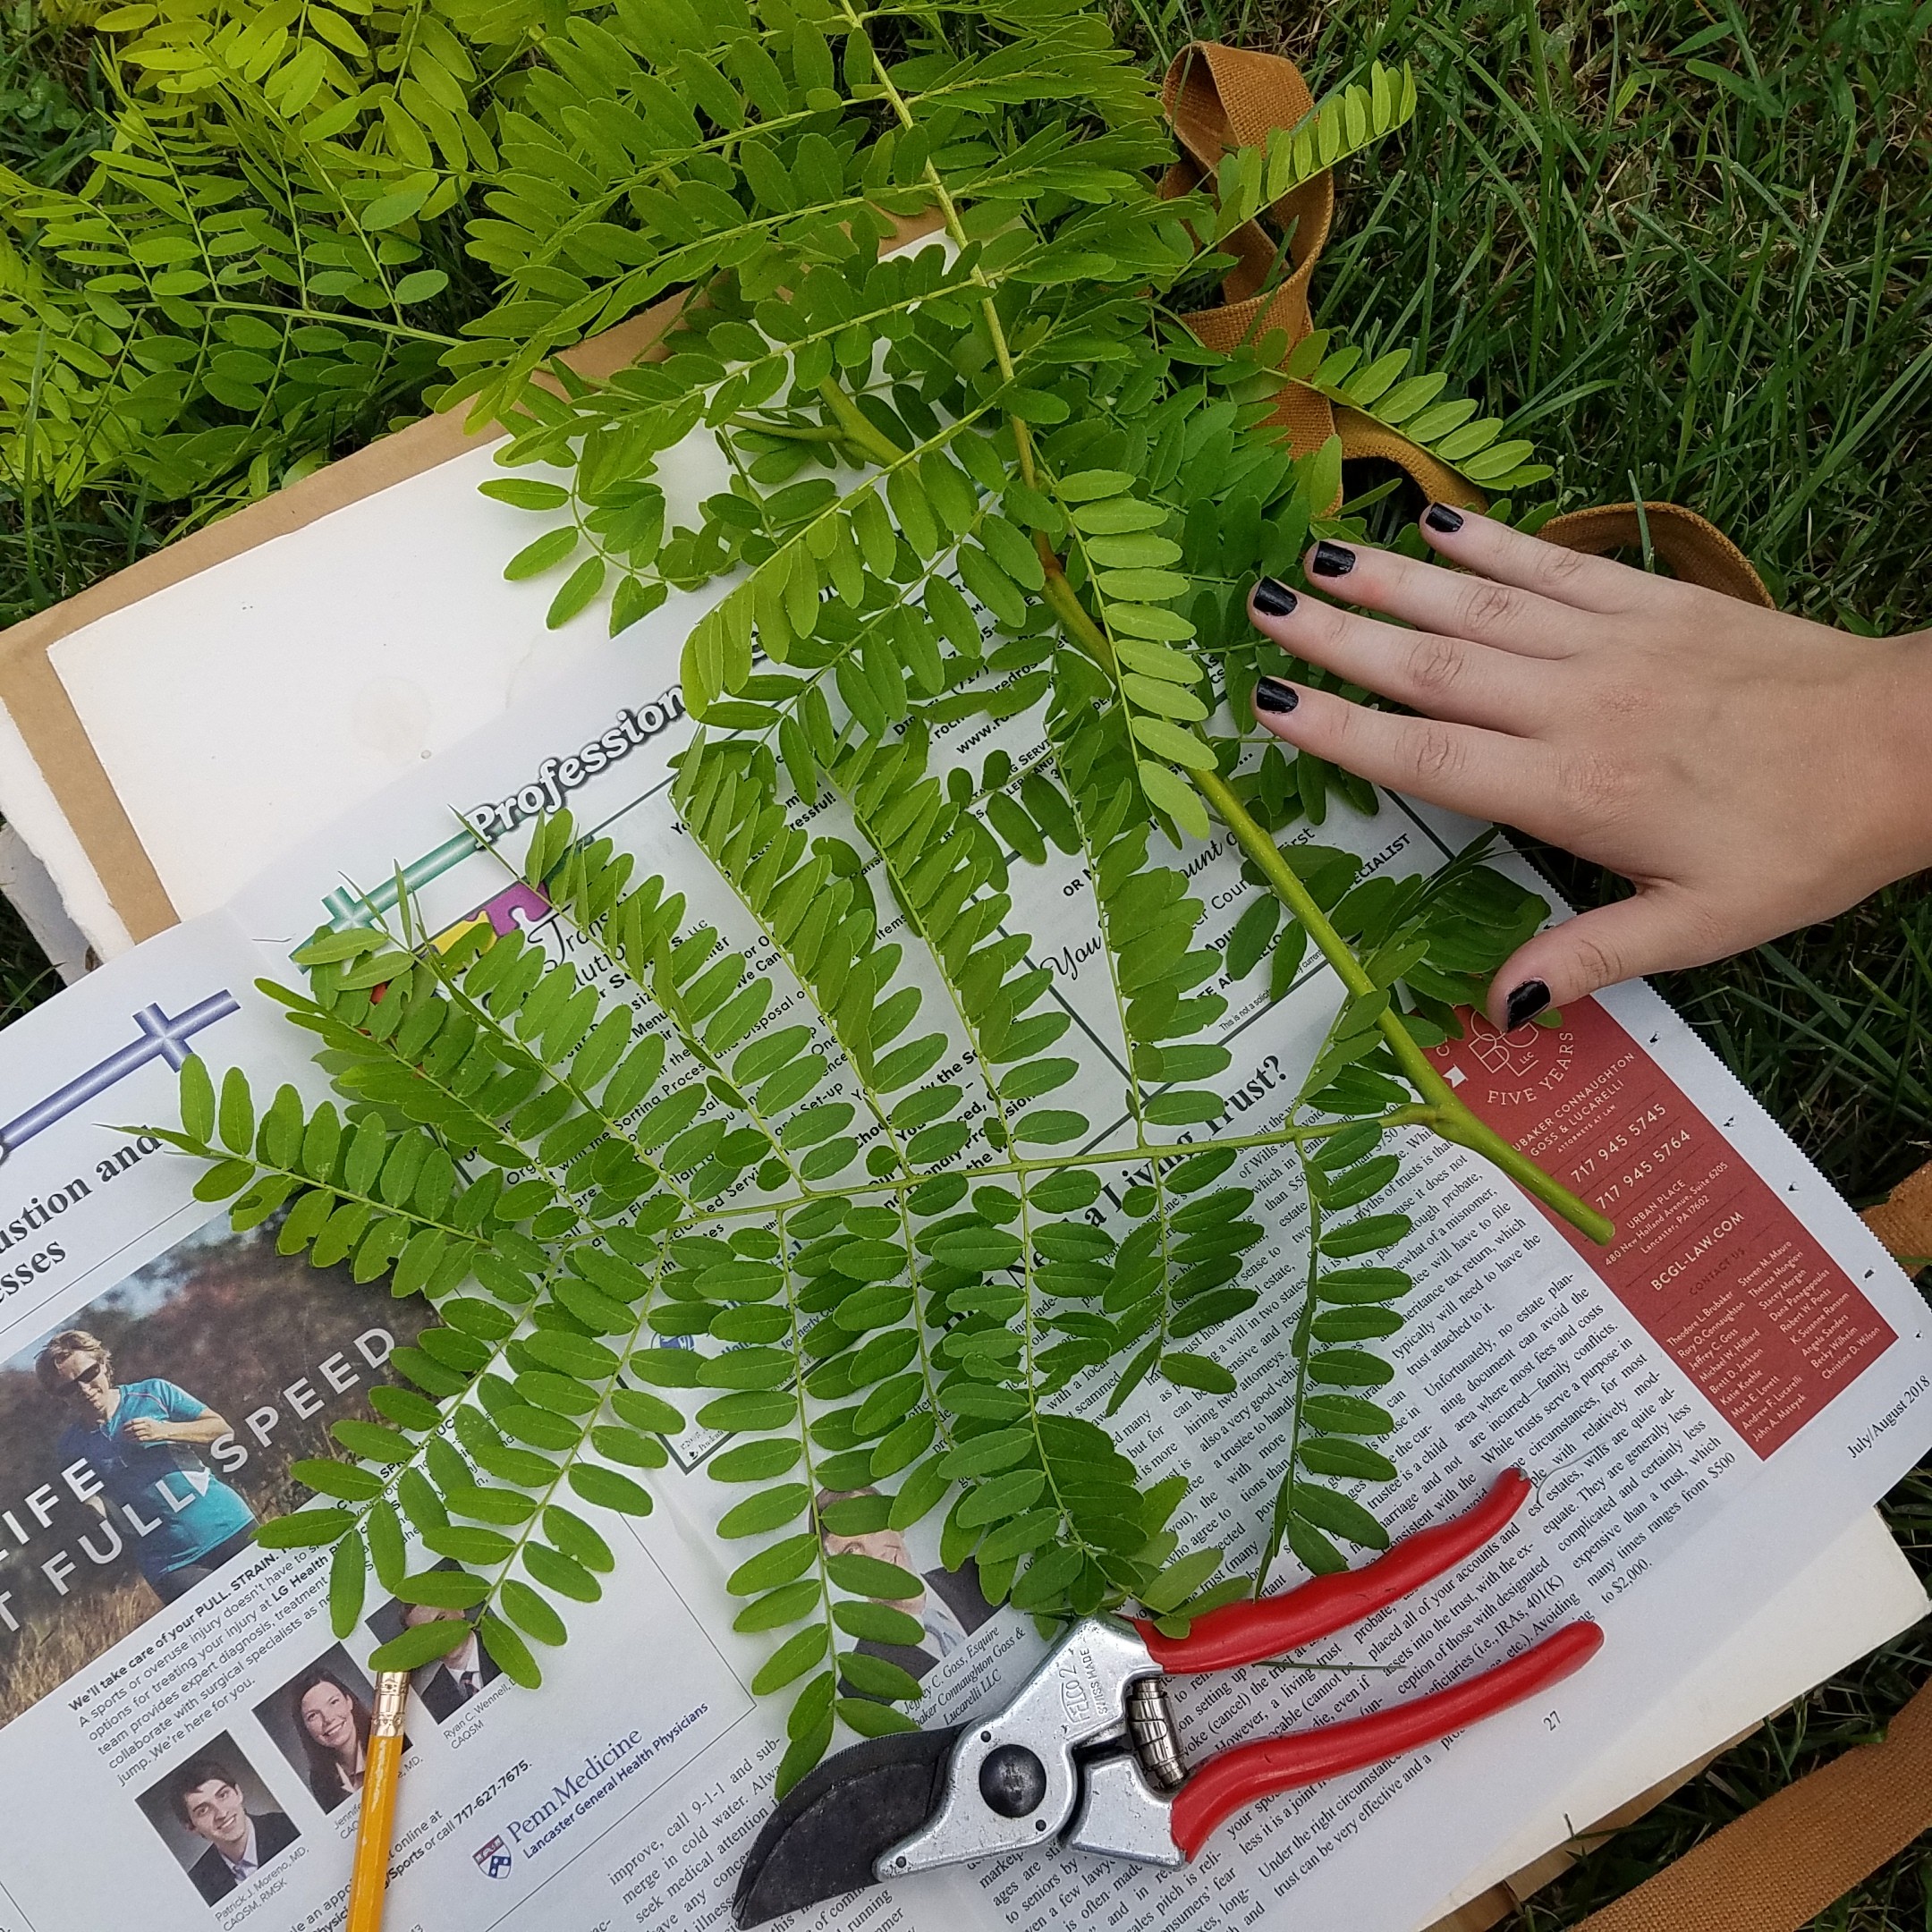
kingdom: Plantae
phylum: Tracheophyta
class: Magnoliopsida
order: Fabales
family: Fabaceae
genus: Gleditsia
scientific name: Gleditsia triacanthos
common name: Honey locust
